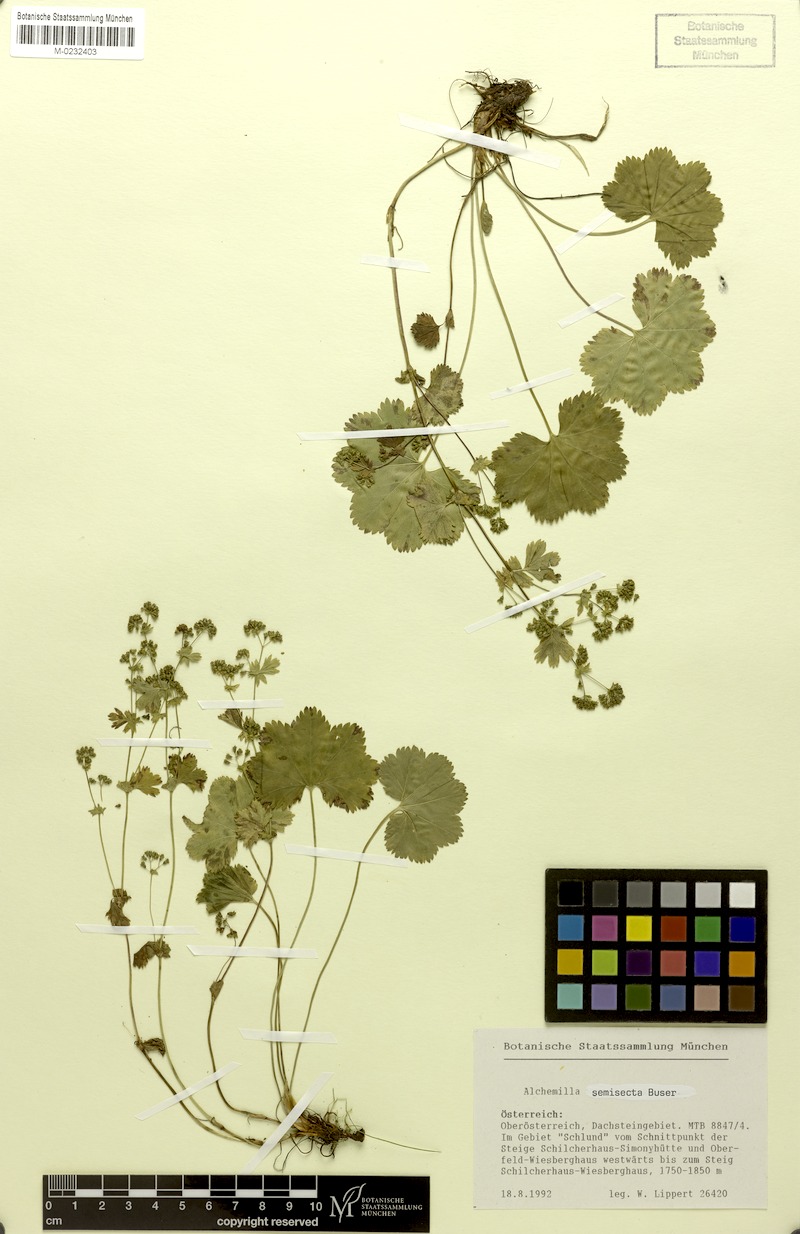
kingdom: Plantae
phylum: Tracheophyta
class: Magnoliopsida
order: Rosales
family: Rosaceae
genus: Alchemilla
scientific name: Alchemilla semisecta
